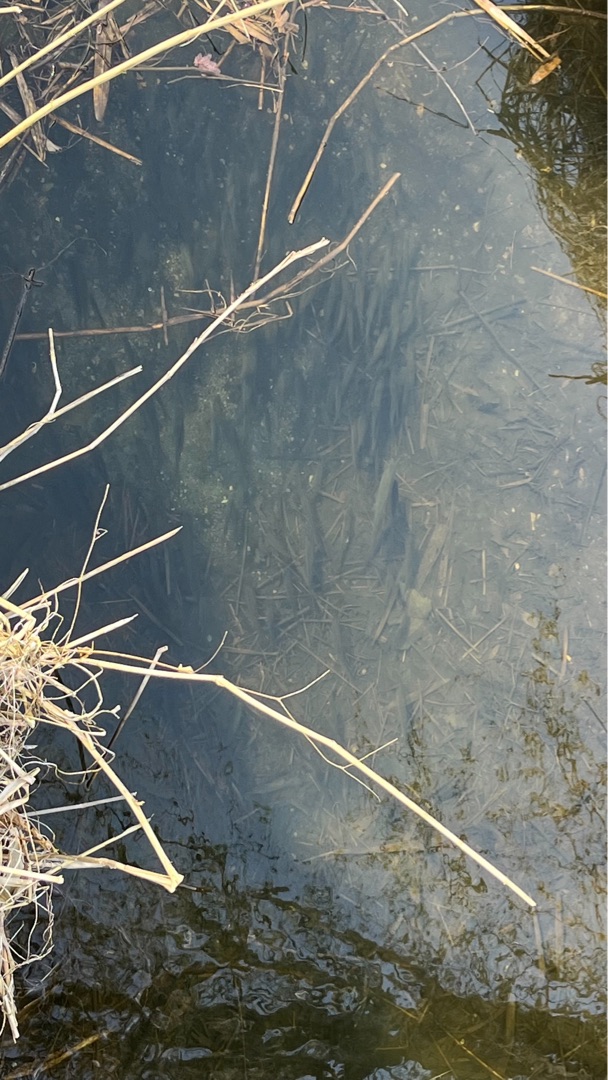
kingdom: Animalia
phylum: Chordata
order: Cypriniformes
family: Cyprinidae
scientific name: Cyprinidae
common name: Karpefamilien
